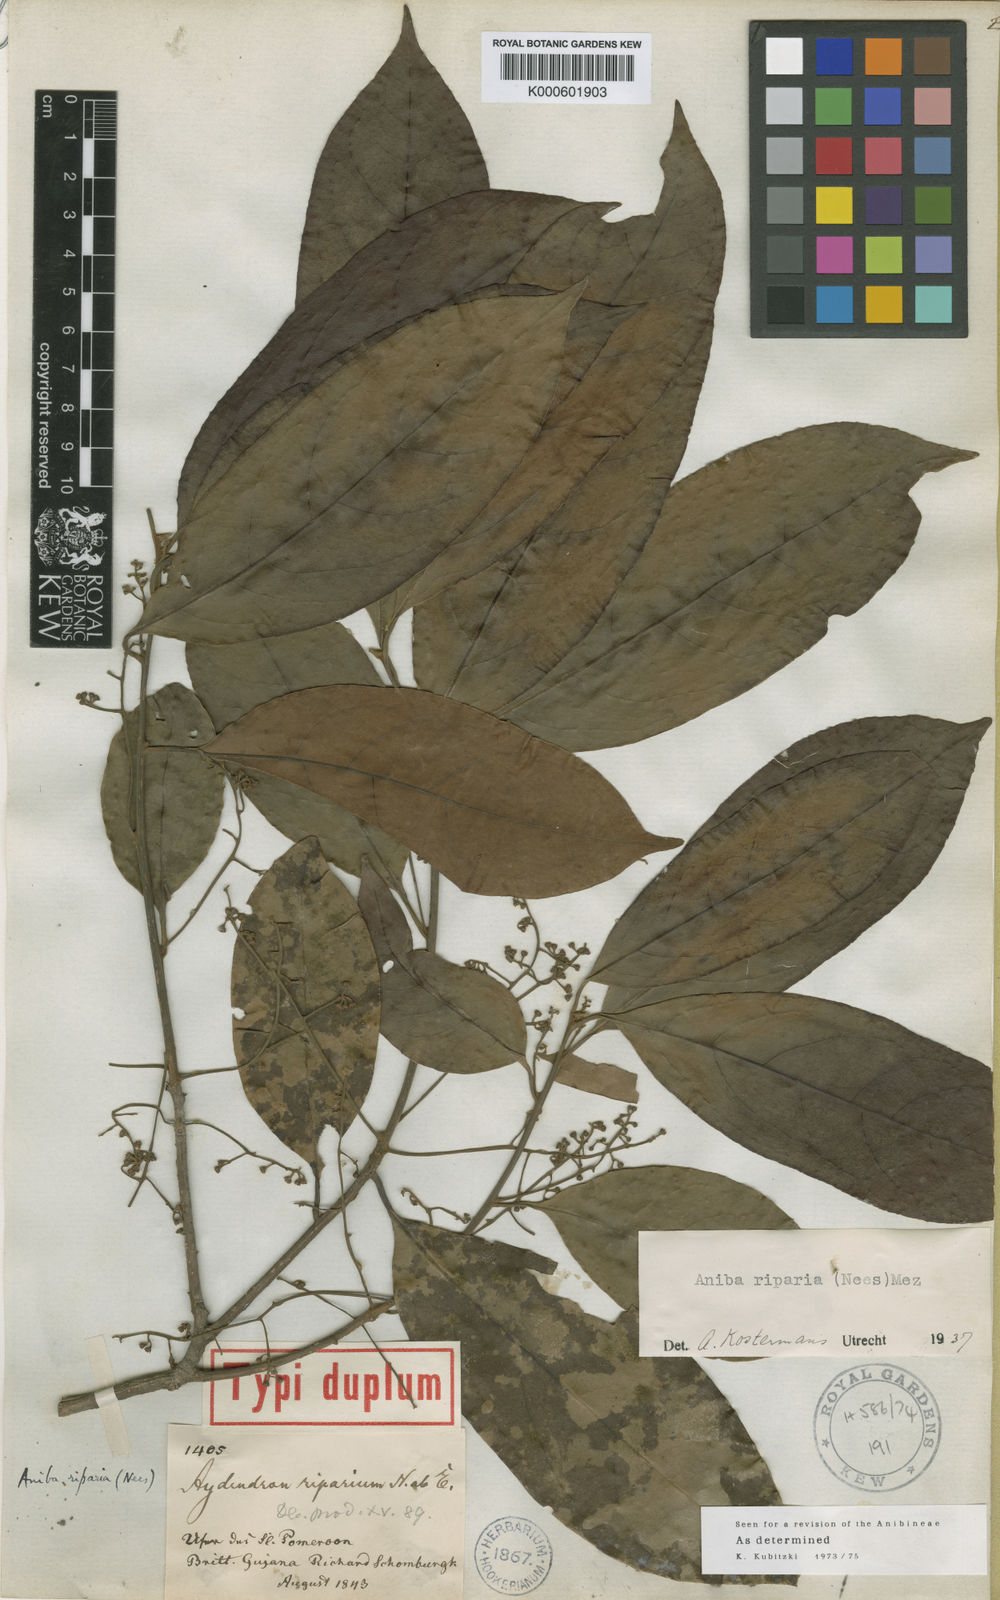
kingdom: Plantae
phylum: Tracheophyta
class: Magnoliopsida
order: Laurales
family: Lauraceae
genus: Aniba
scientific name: Aniba riparia
